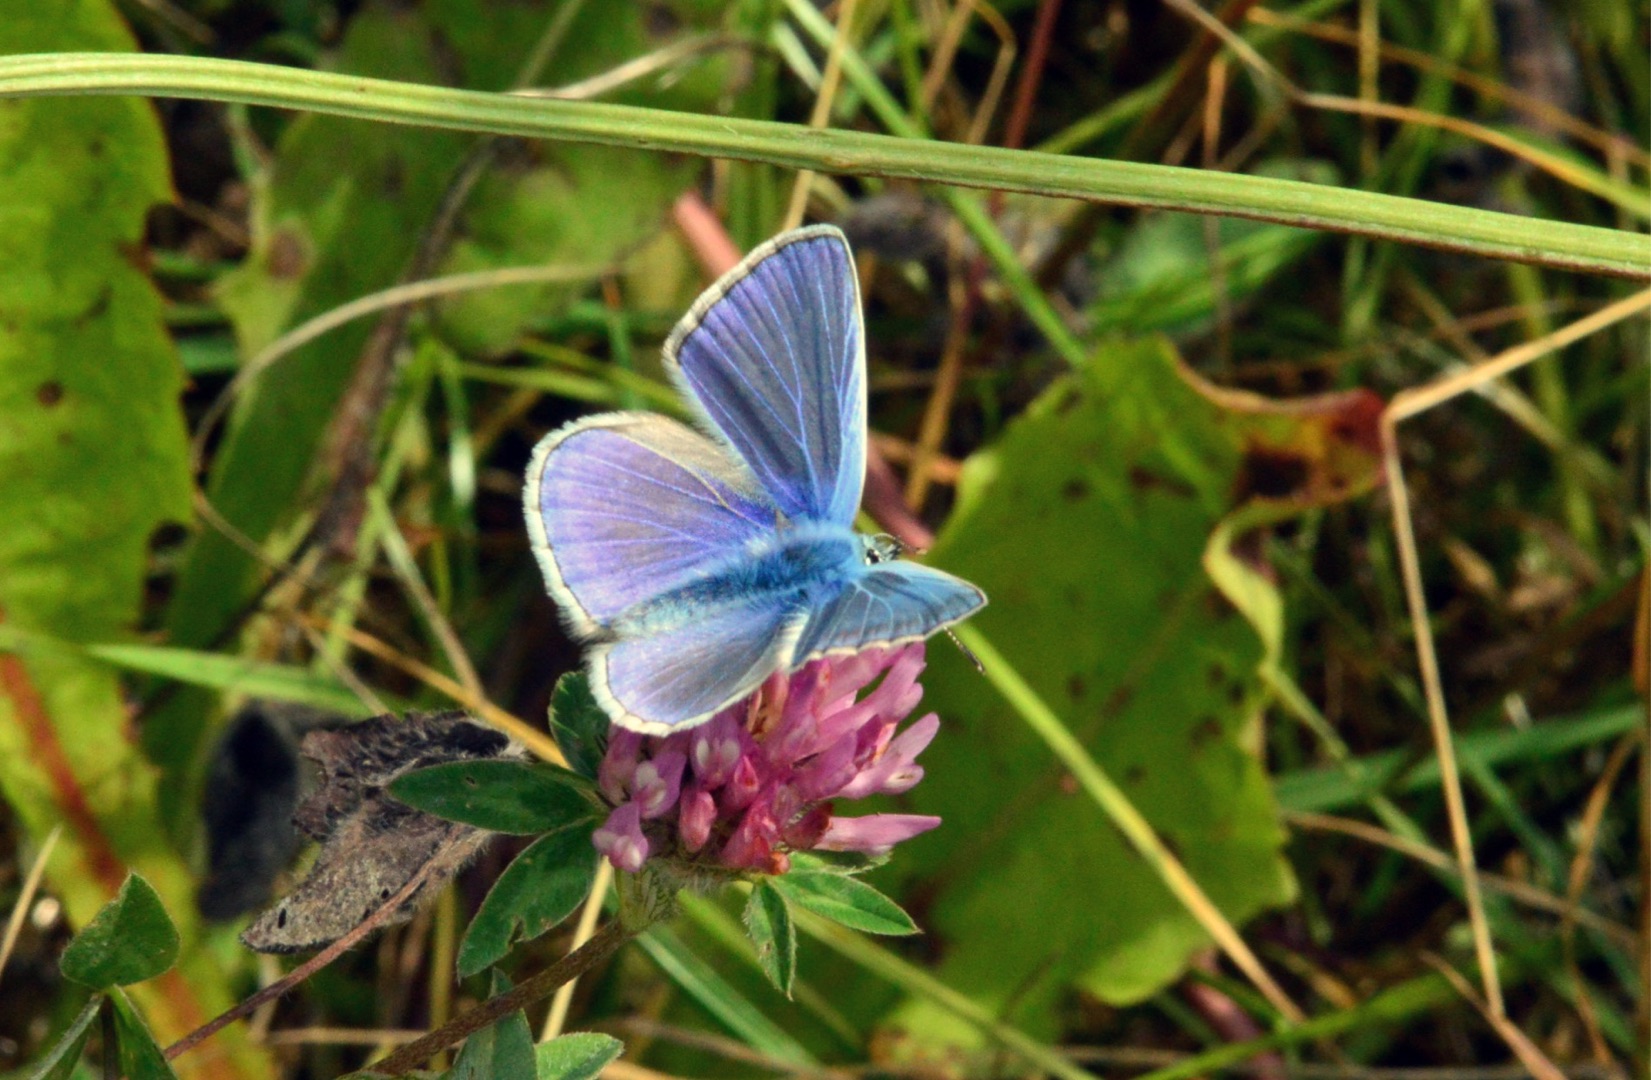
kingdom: Animalia
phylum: Arthropoda
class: Insecta
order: Lepidoptera
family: Lycaenidae
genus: Polyommatus
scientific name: Polyommatus icarus
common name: Almindelig blåfugl
